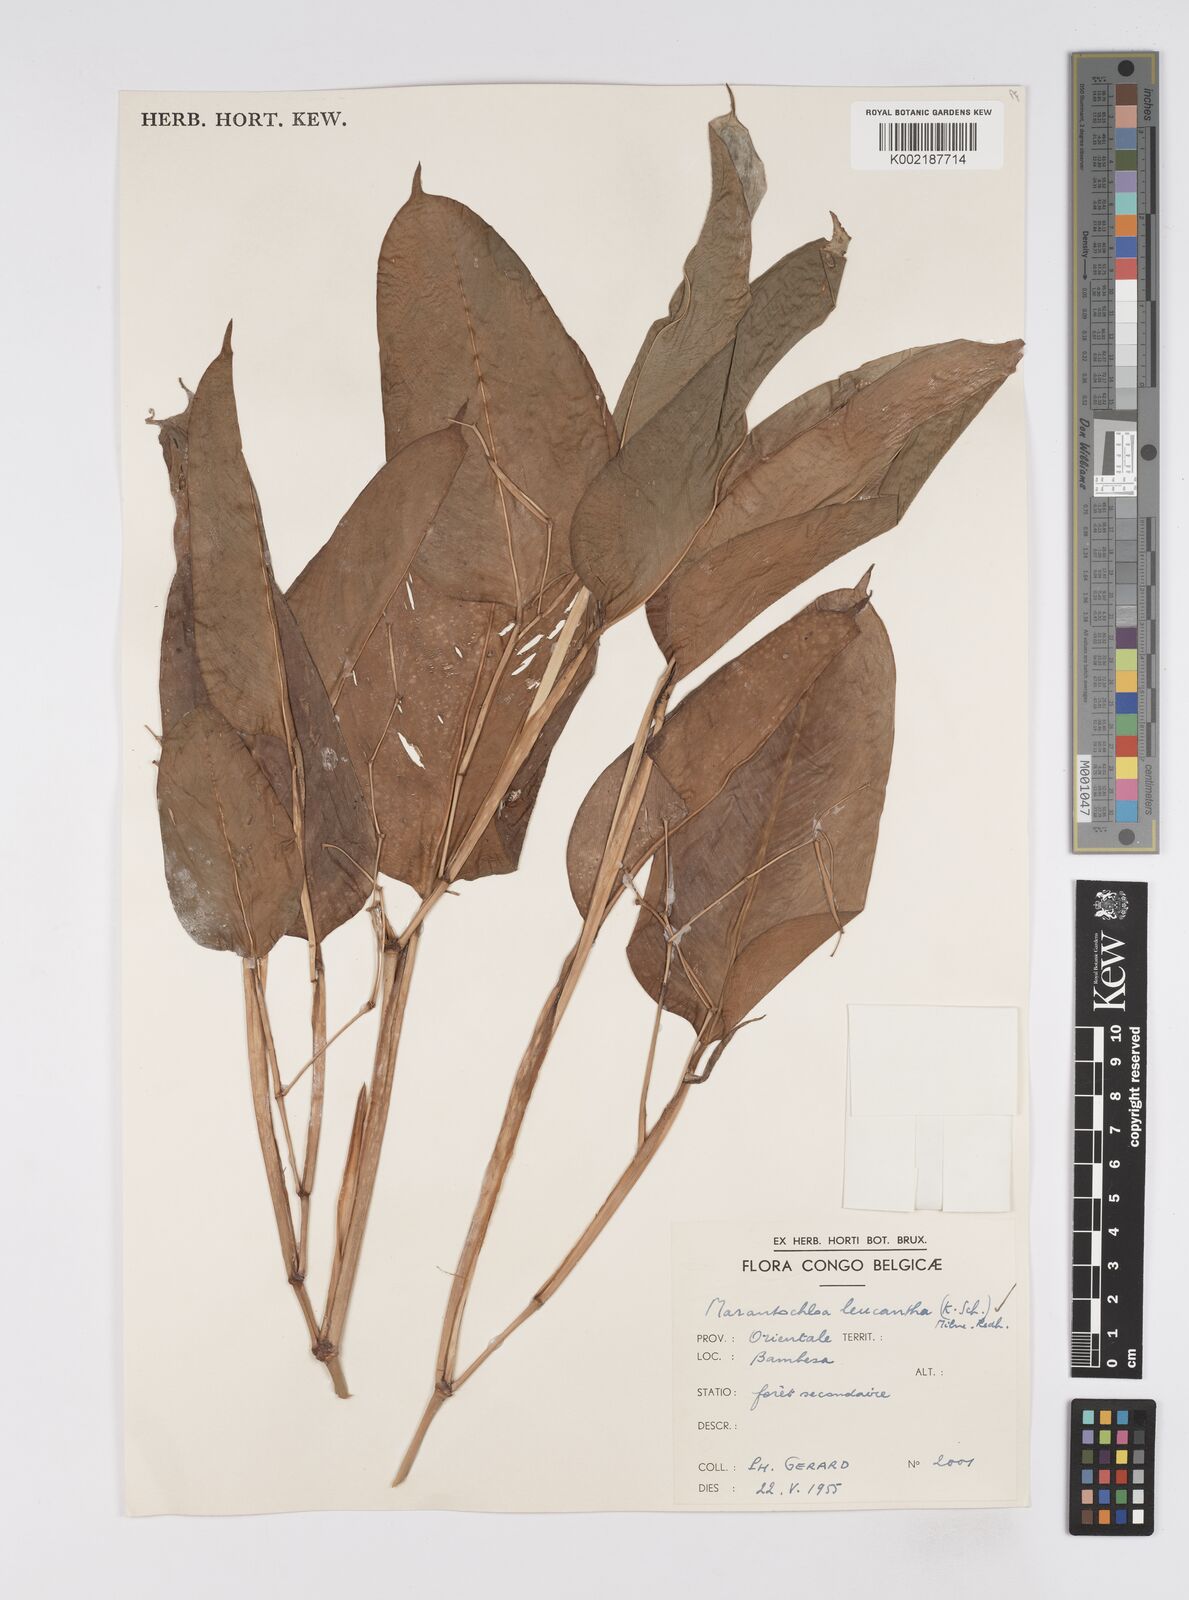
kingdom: Plantae
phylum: Tracheophyta
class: Liliopsida
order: Zingiberales
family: Marantaceae
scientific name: Marantaceae
